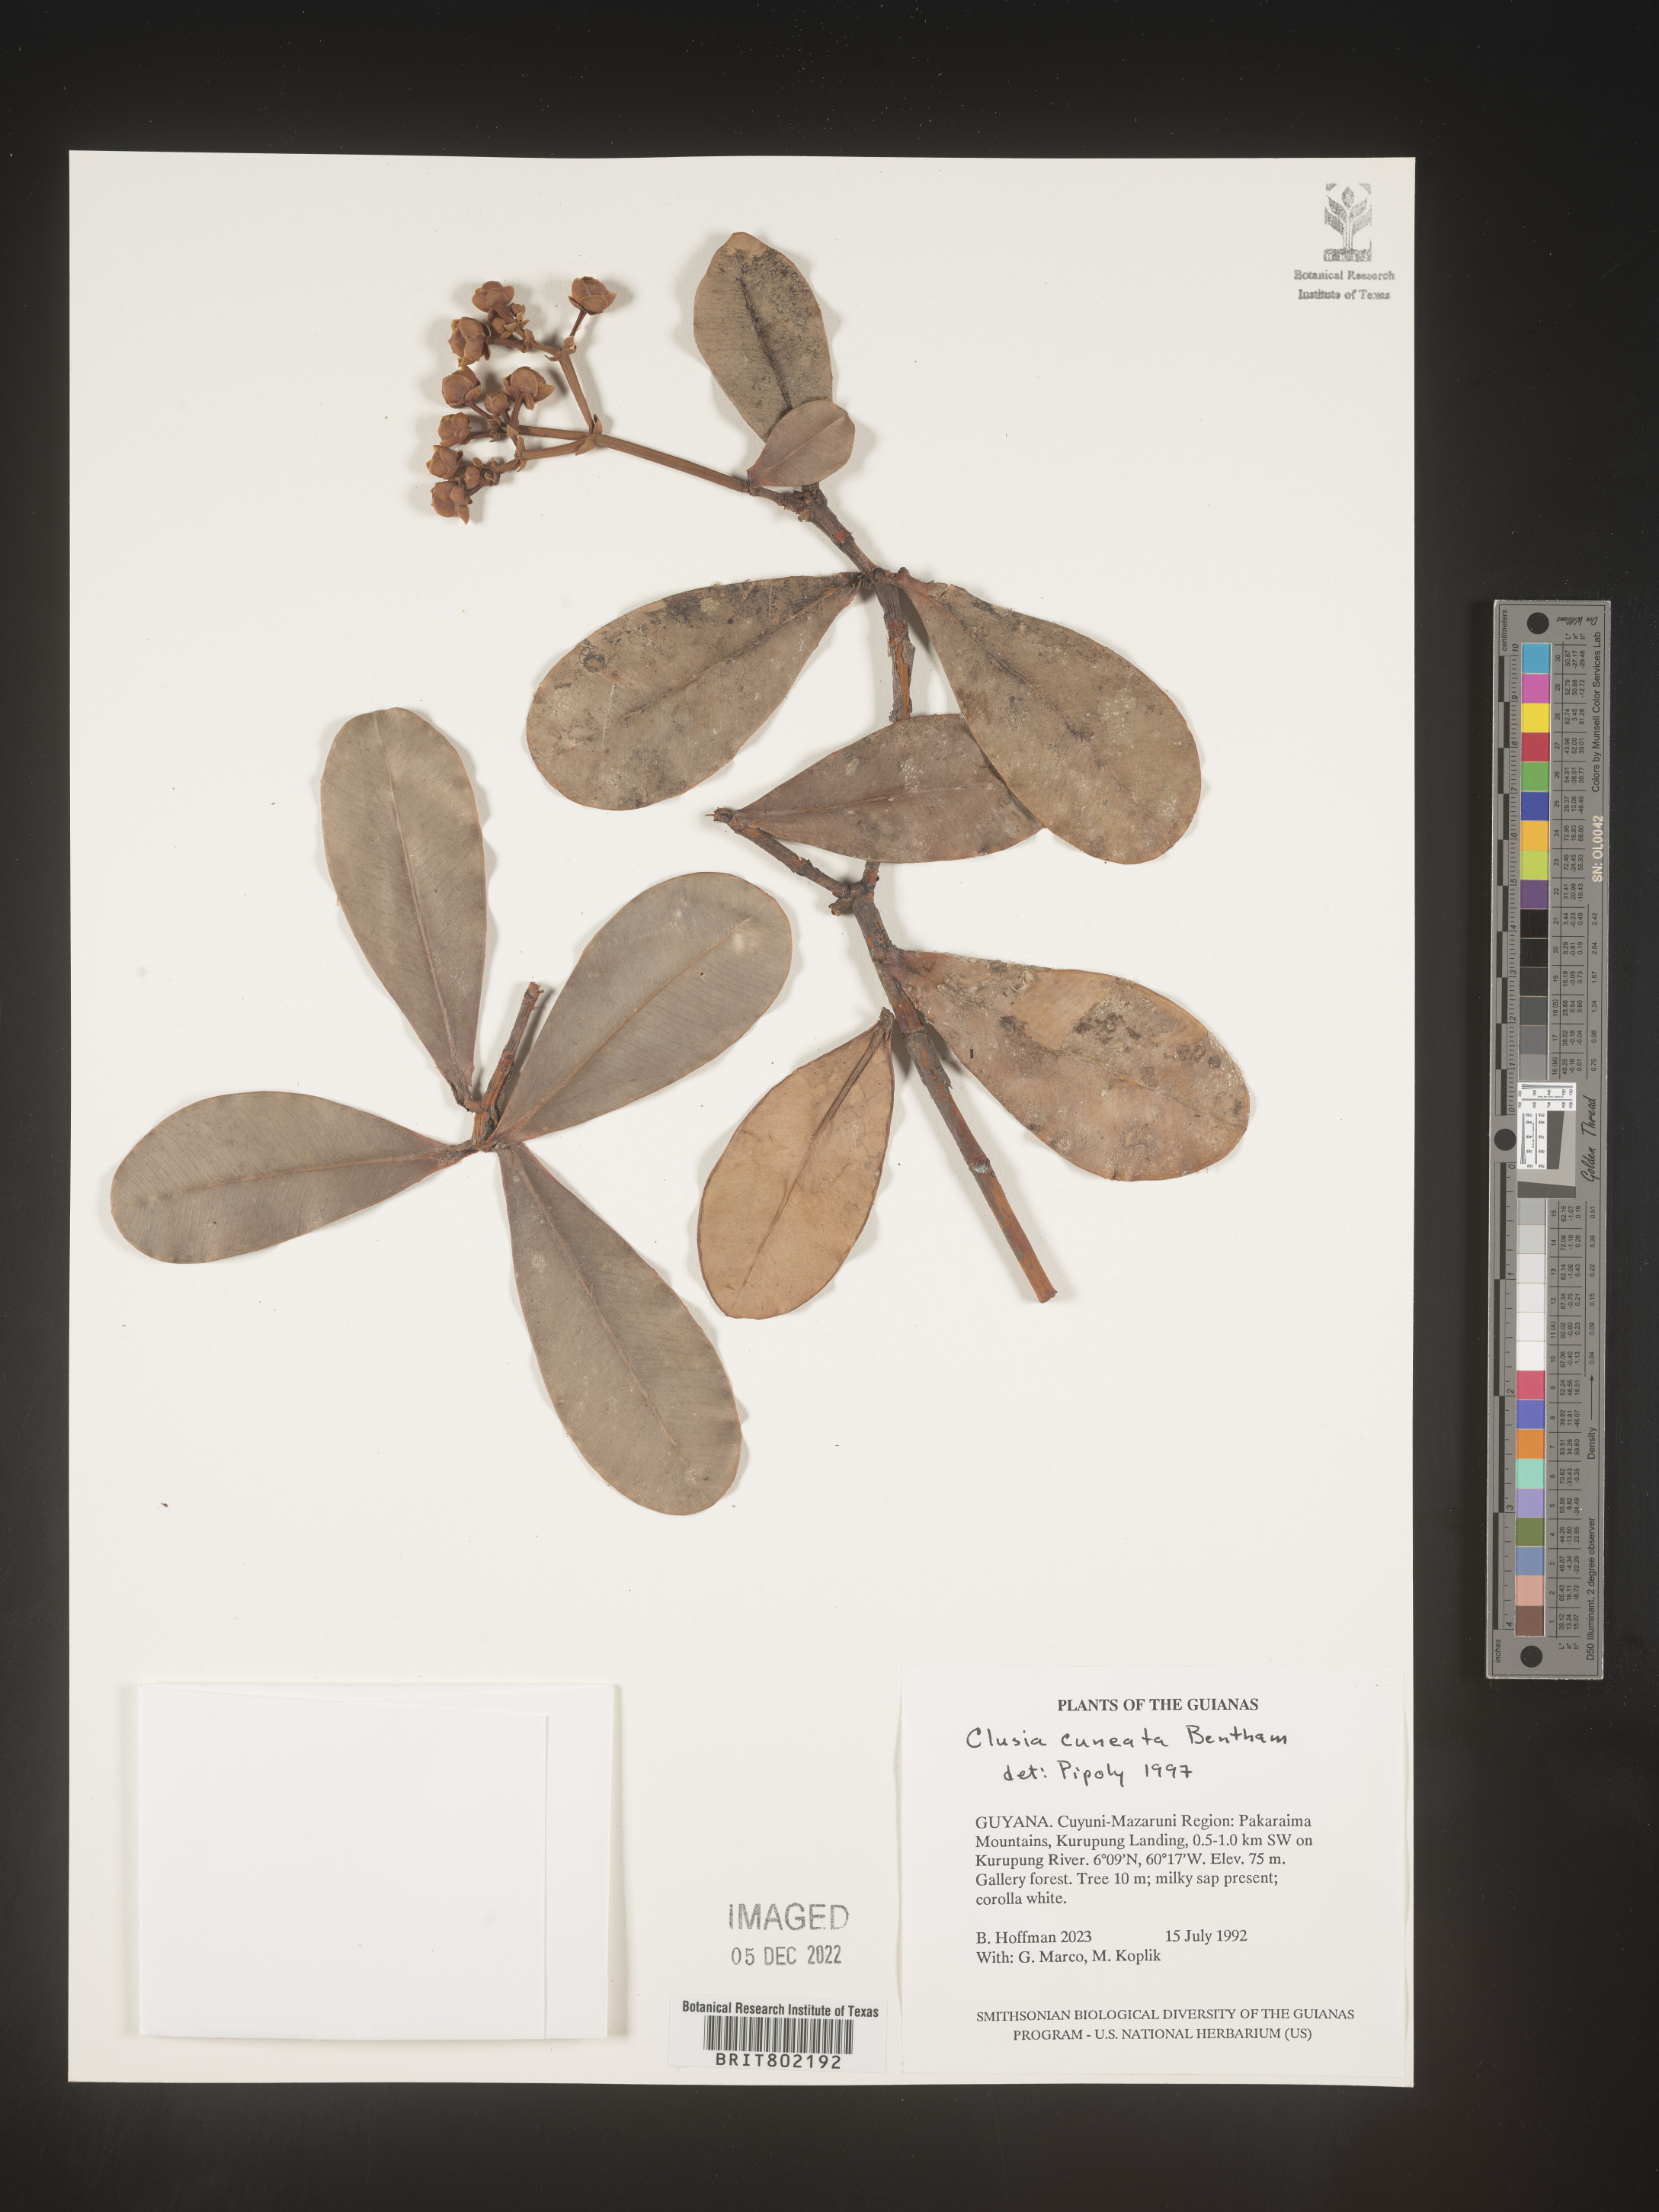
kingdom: Plantae
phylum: Tracheophyta
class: Magnoliopsida
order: Malpighiales
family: Clusiaceae
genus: Clusia
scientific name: Clusia
